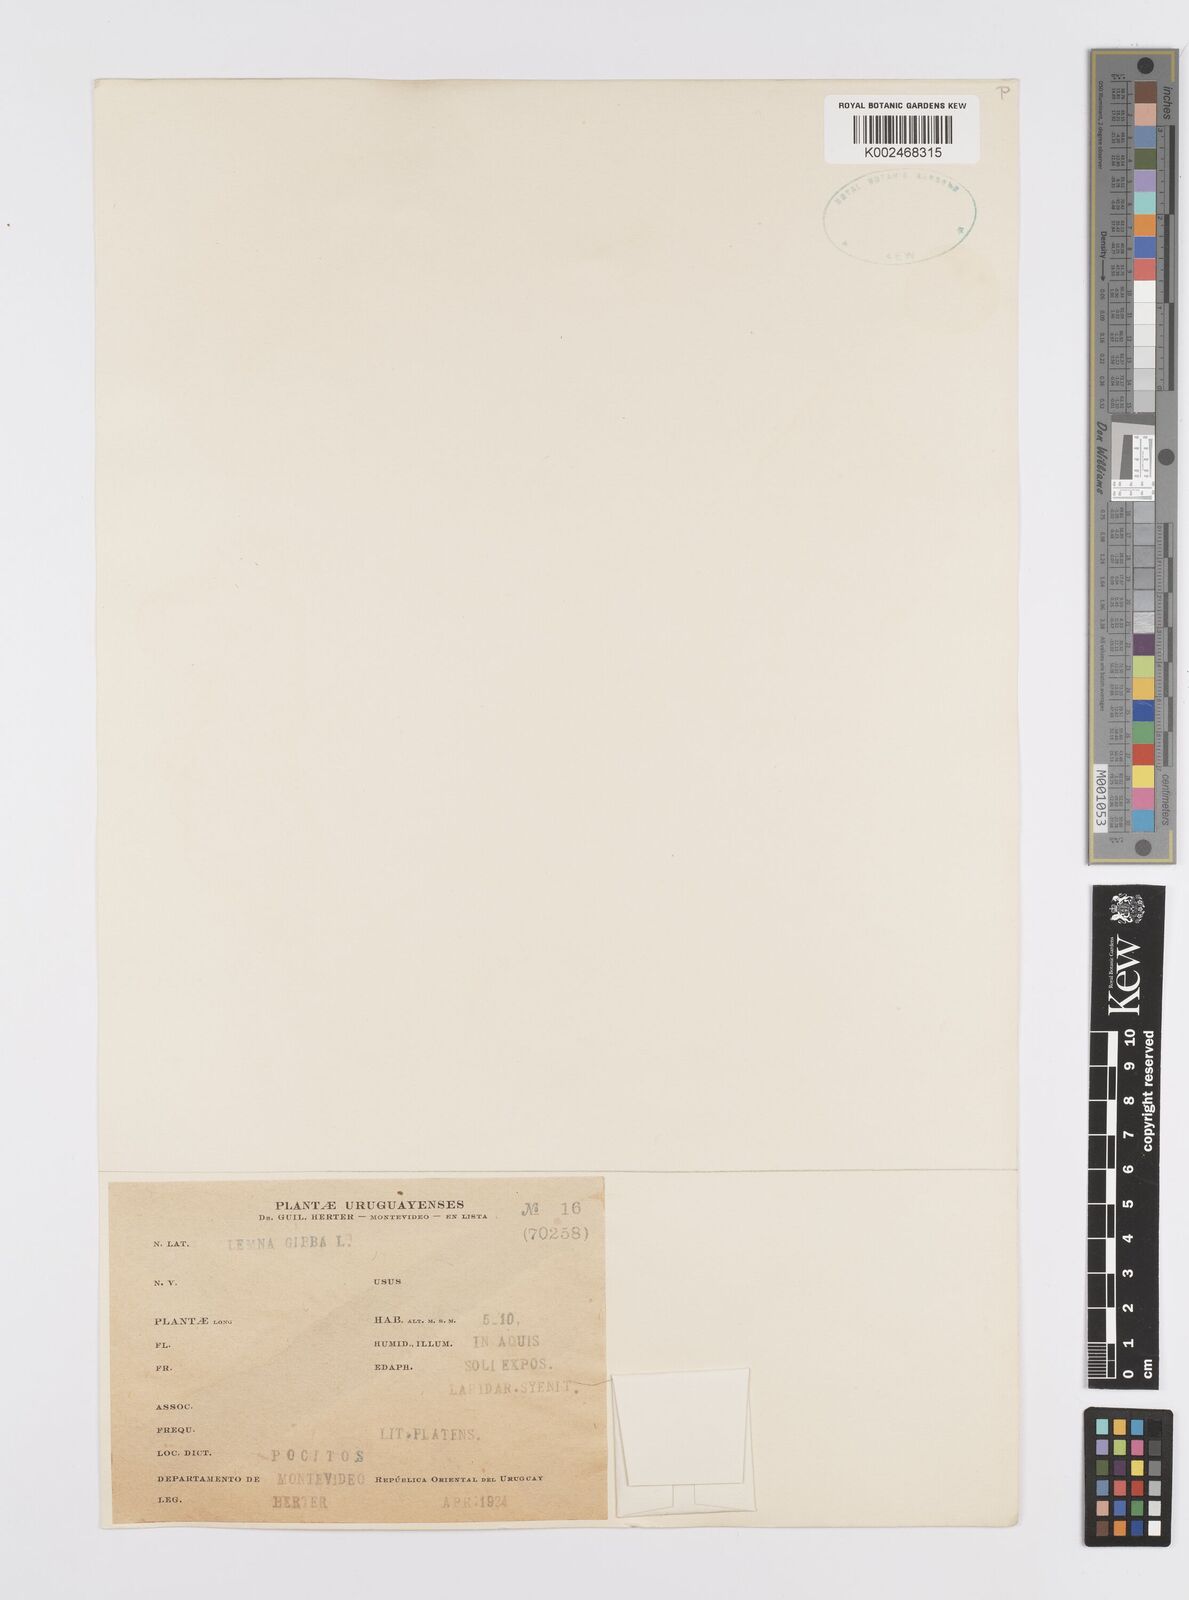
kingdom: Plantae
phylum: Tracheophyta
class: Liliopsida
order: Alismatales
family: Araceae
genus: Lemna
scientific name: Lemna gibba
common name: Fat duckweed
